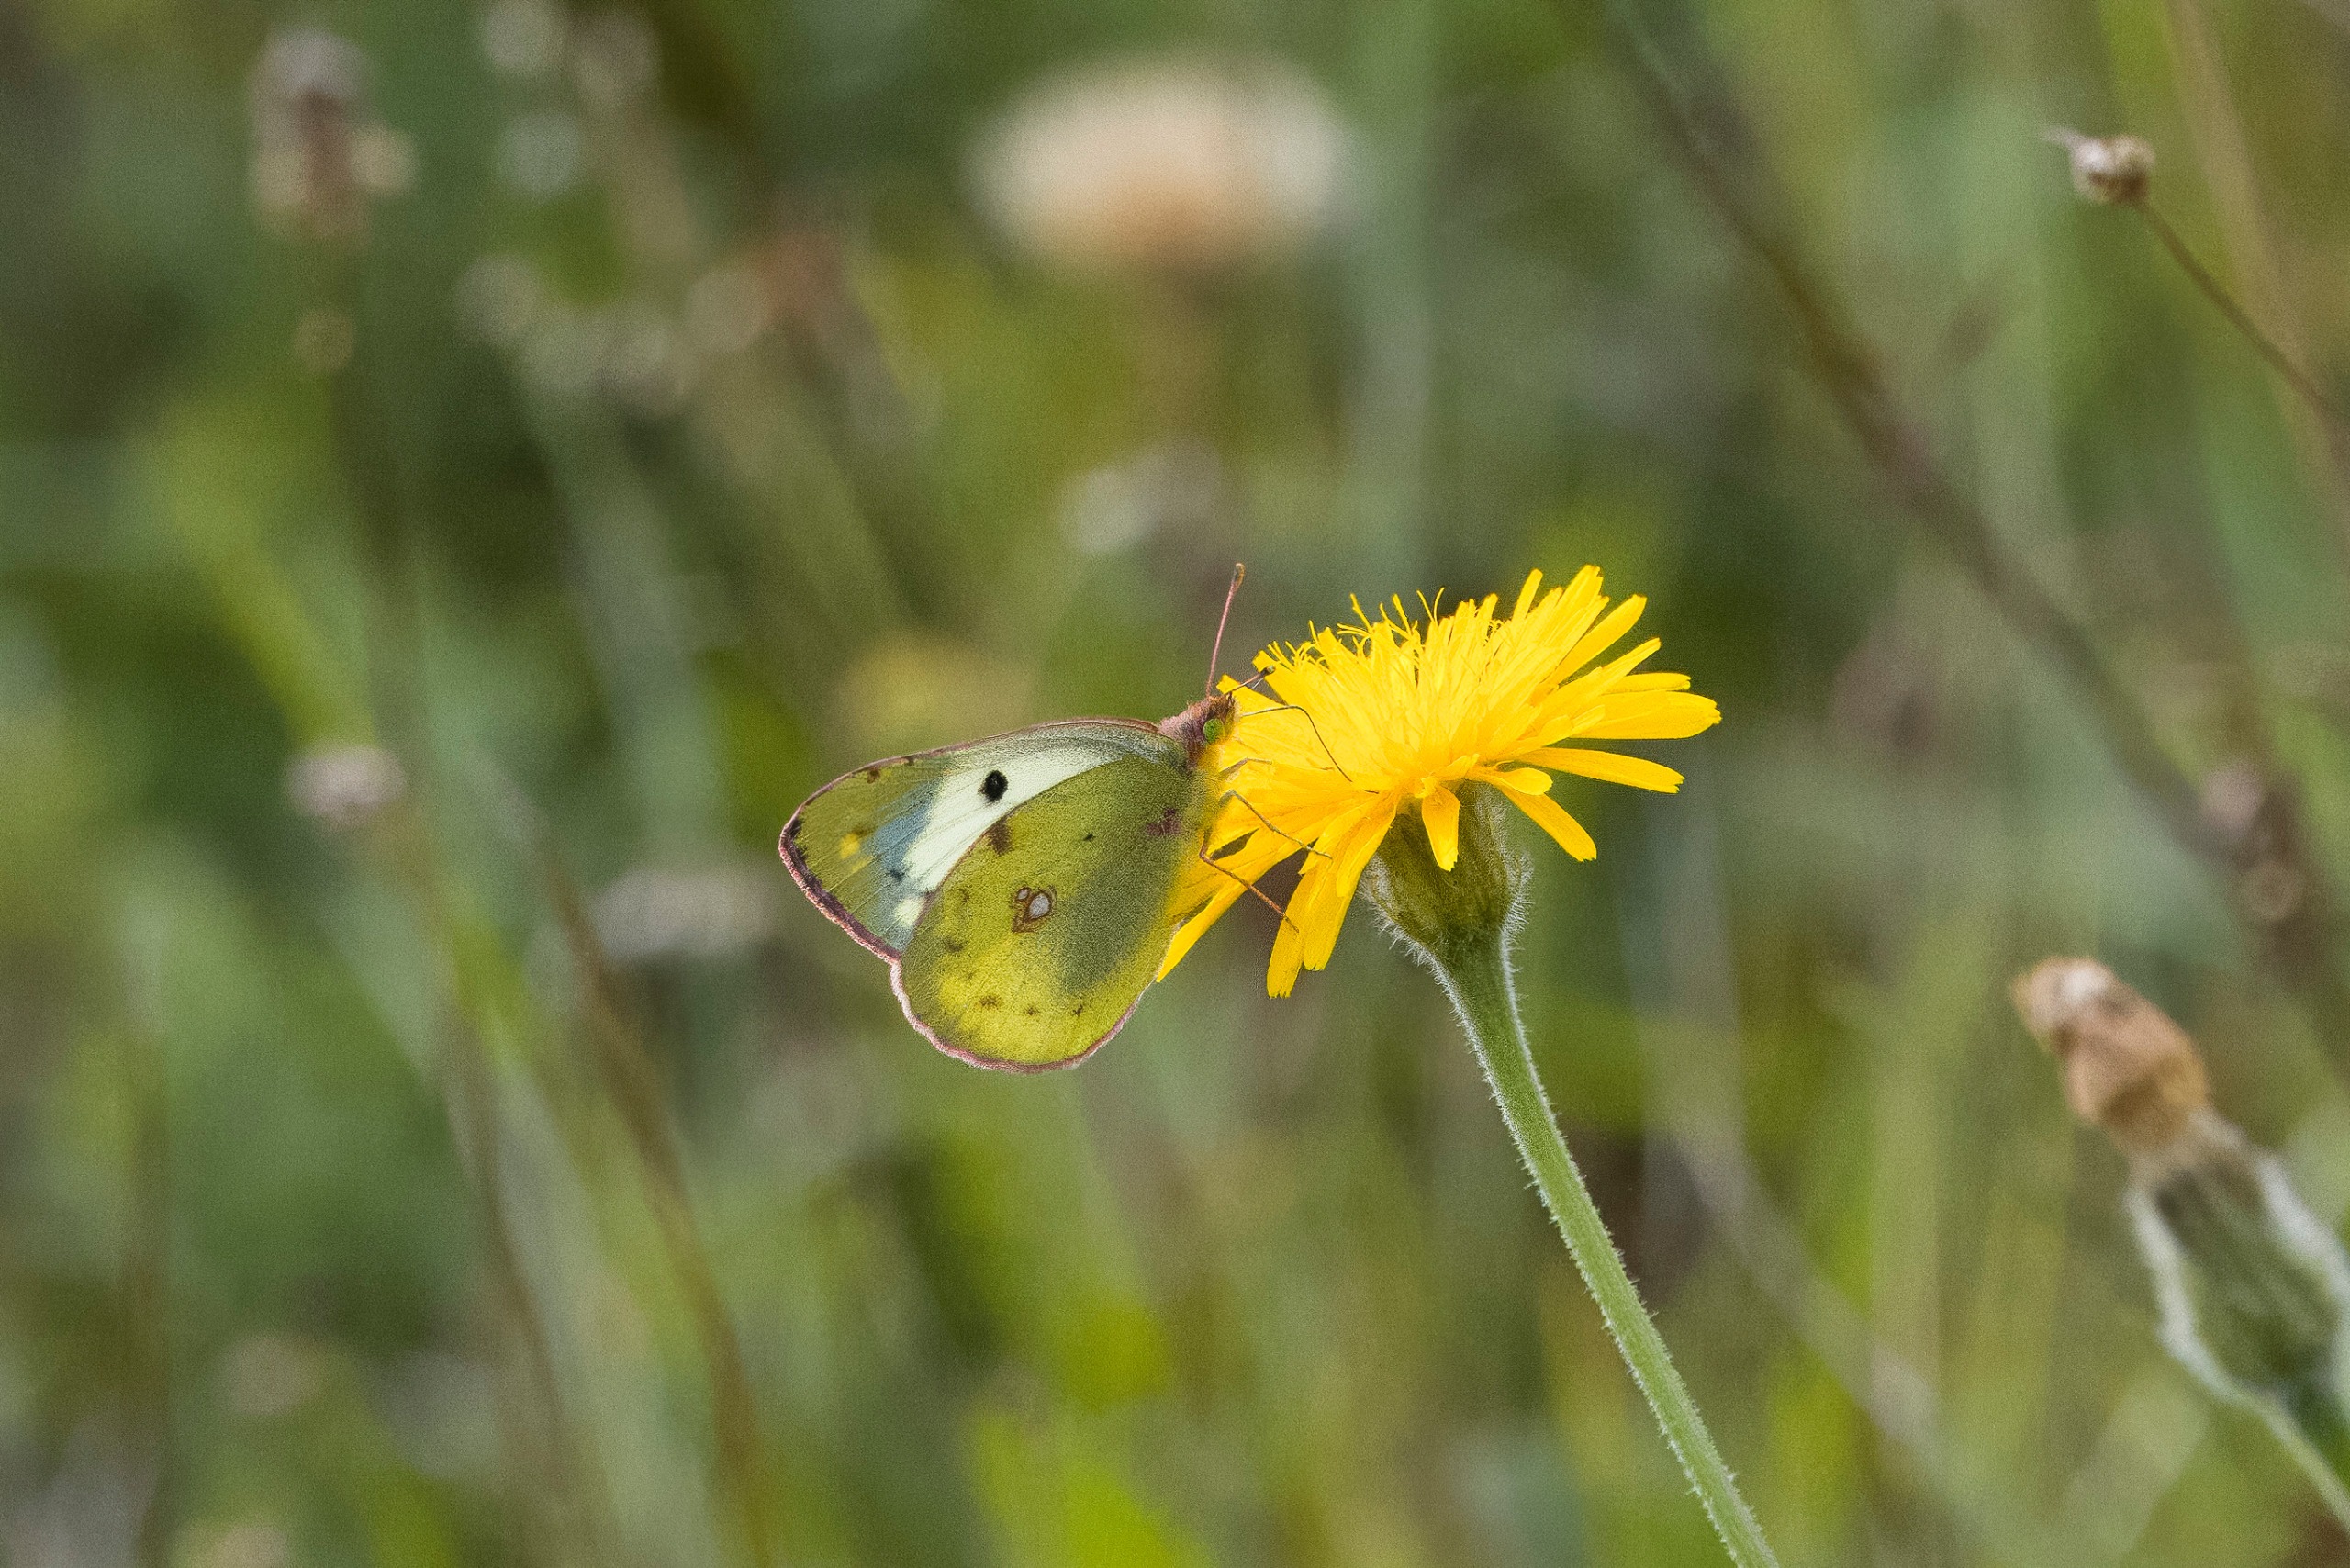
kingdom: Animalia
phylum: Arthropoda
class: Insecta
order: Lepidoptera
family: Pieridae
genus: Colias
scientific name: Colias hyale
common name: Gul høsommerfugl
